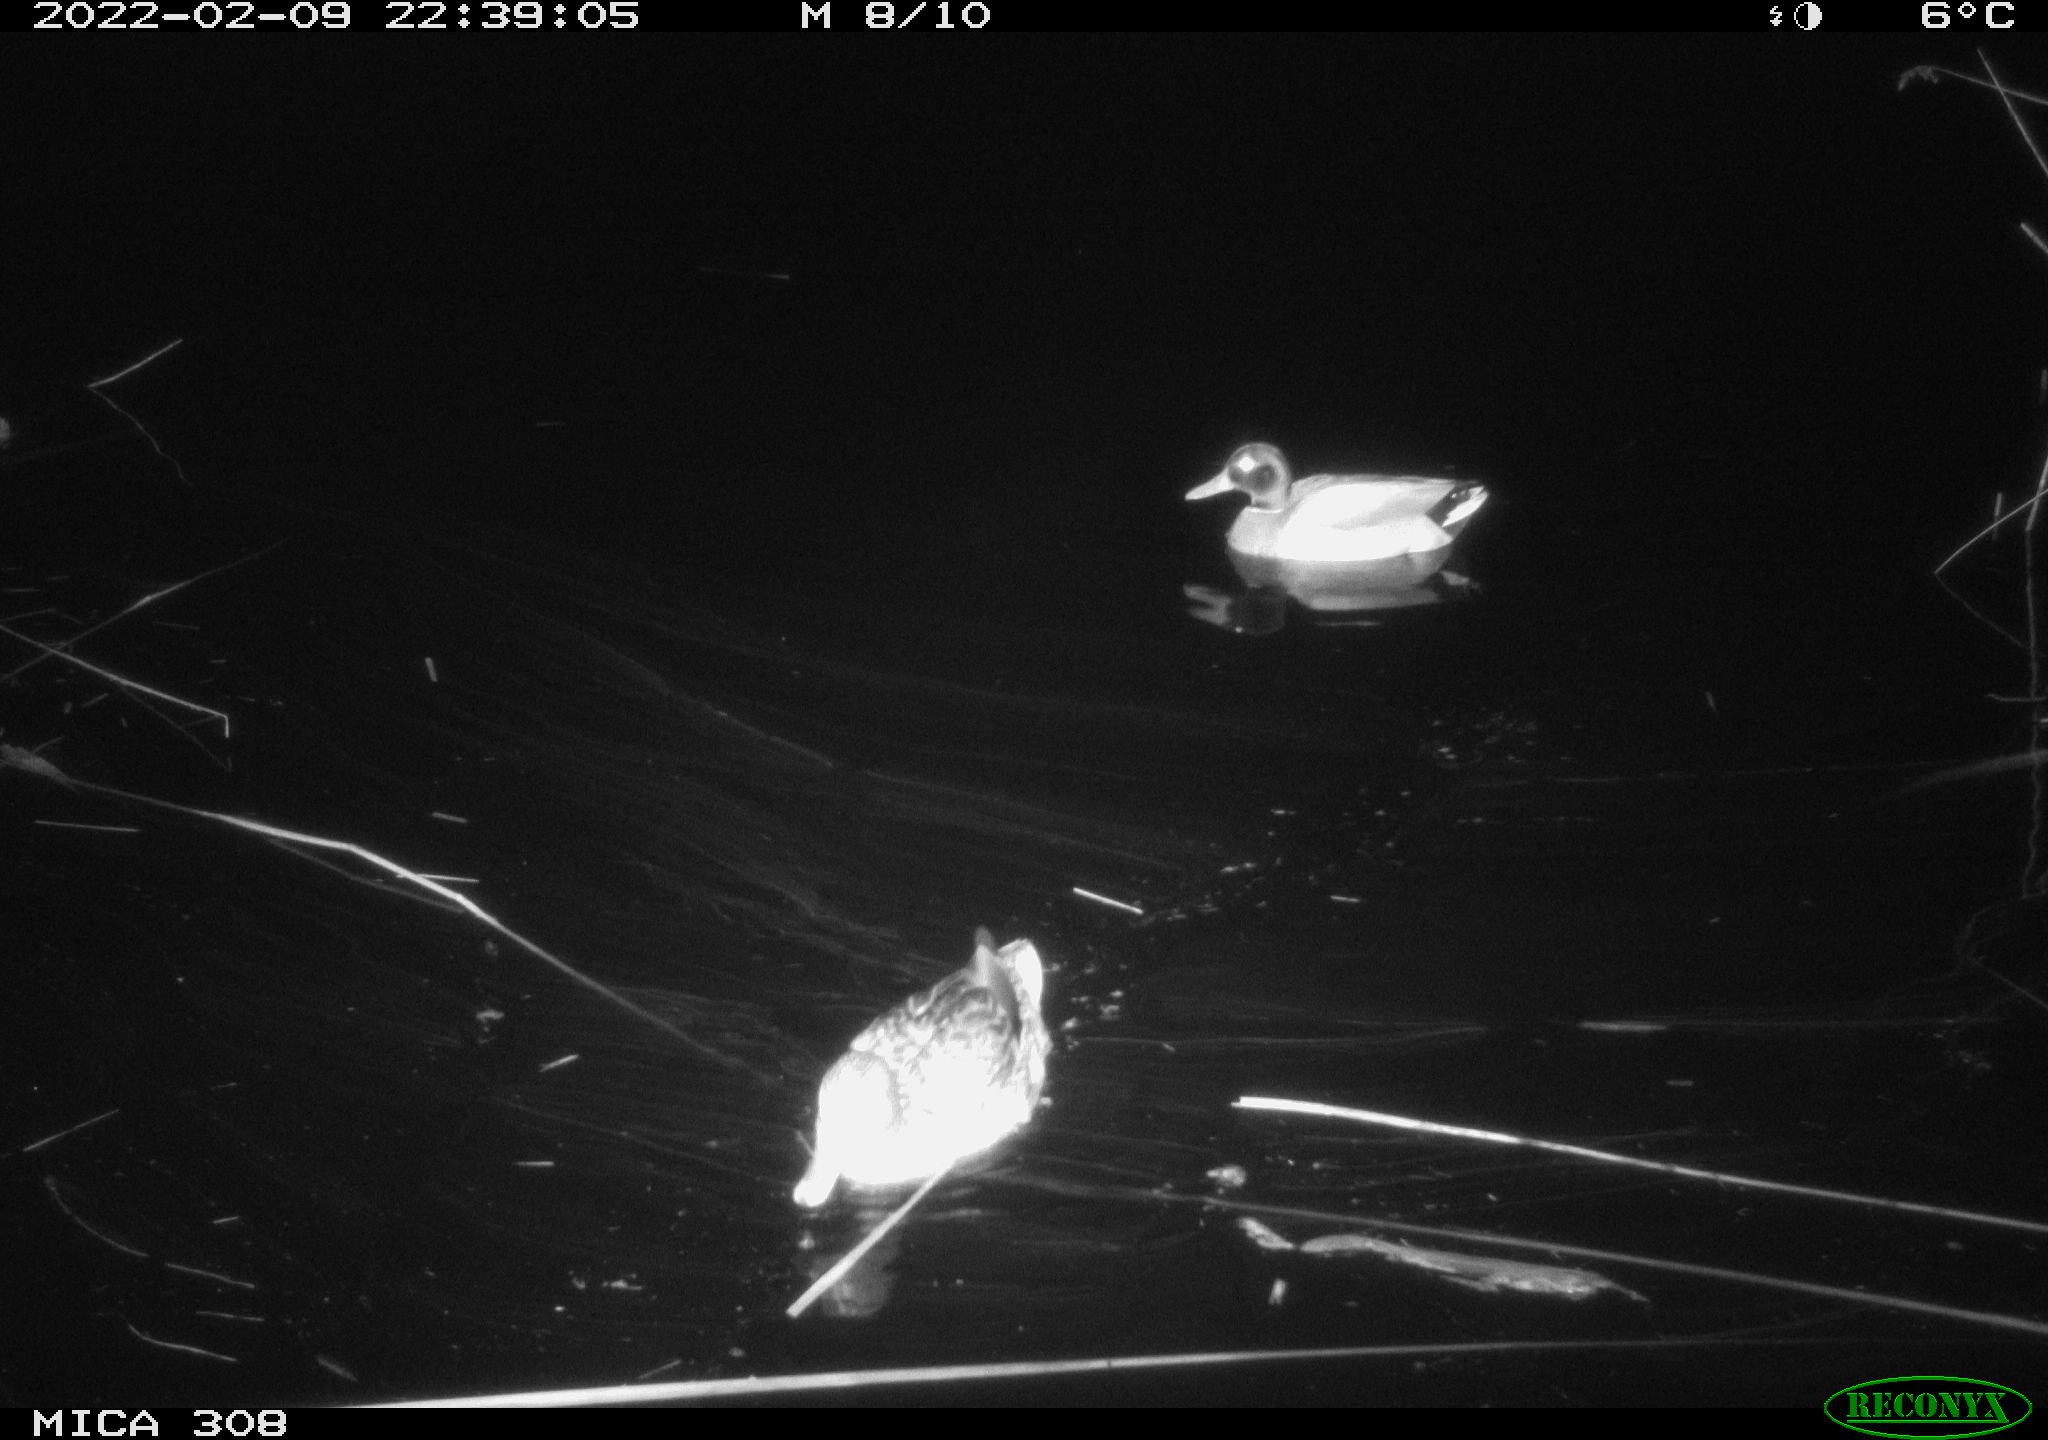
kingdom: Animalia
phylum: Chordata
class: Aves
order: Anseriformes
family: Anatidae
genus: Anas
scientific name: Anas platyrhynchos
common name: Mallard
